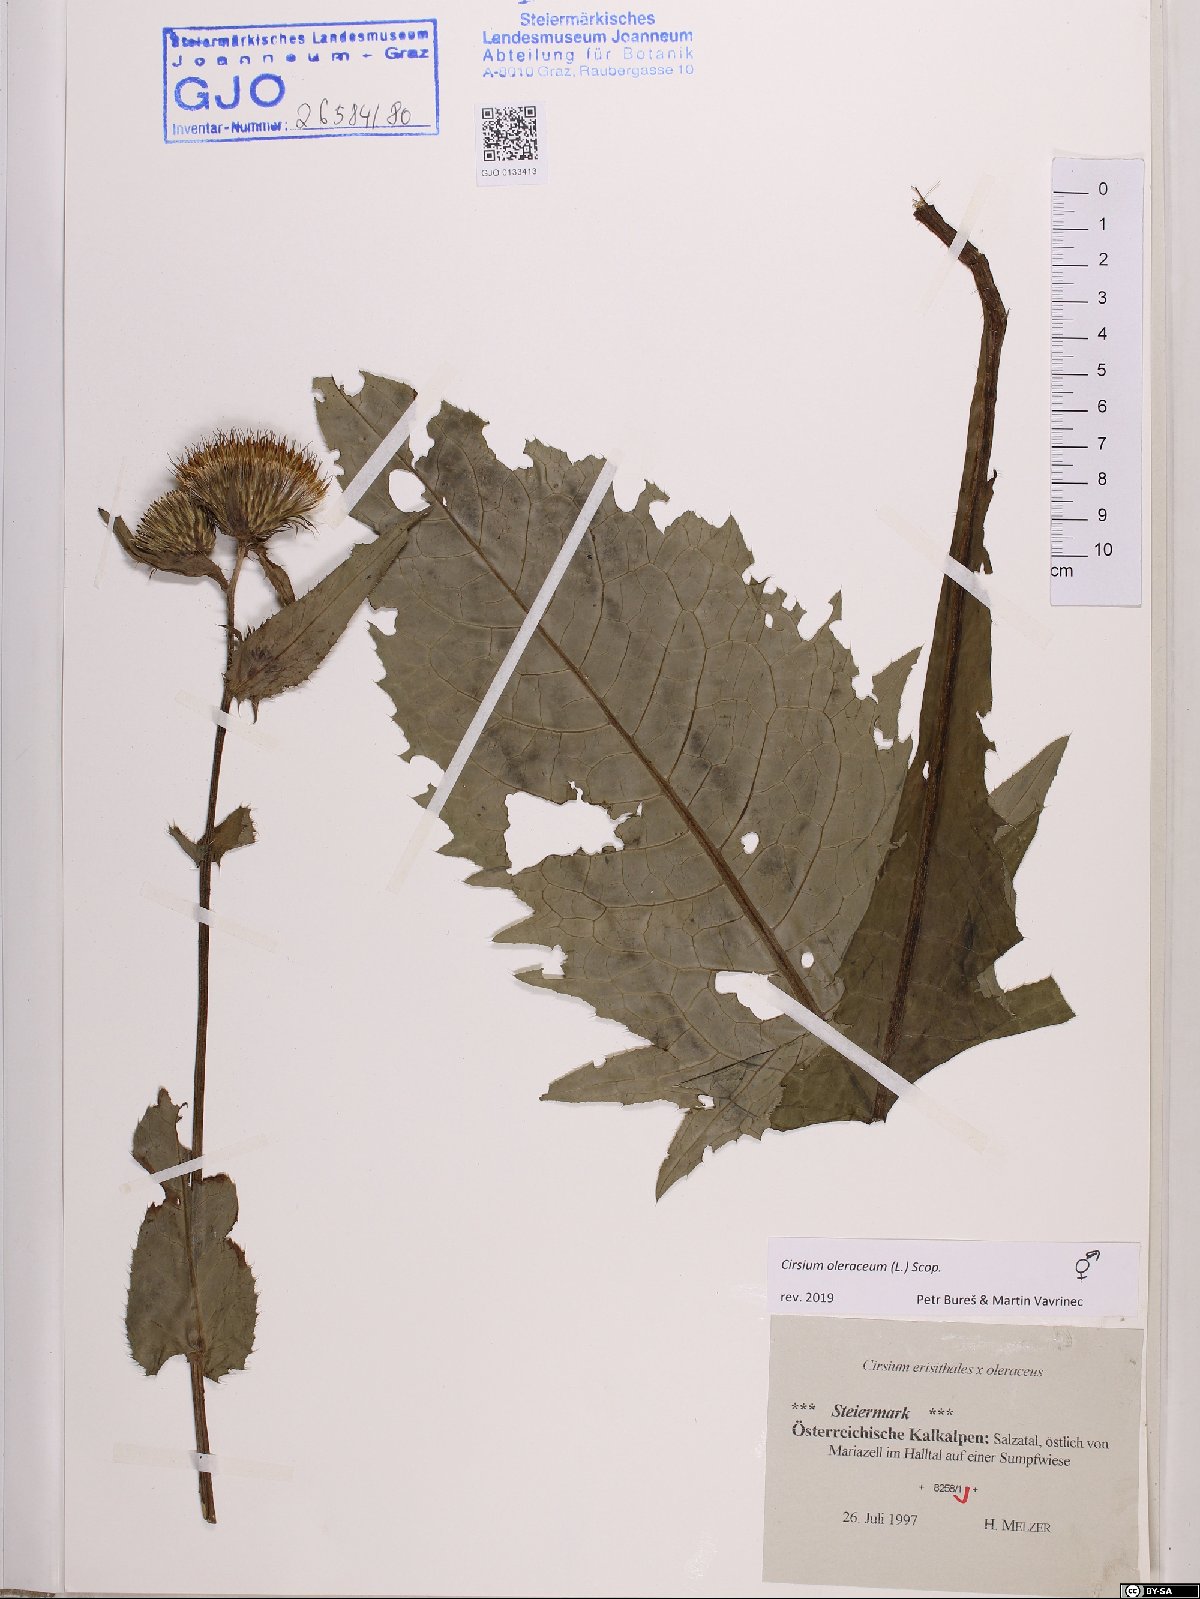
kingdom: Plantae
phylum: Tracheophyta
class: Magnoliopsida
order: Asterales
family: Asteraceae
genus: Cirsium
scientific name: Cirsium oleraceum
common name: Cabbage thistle
